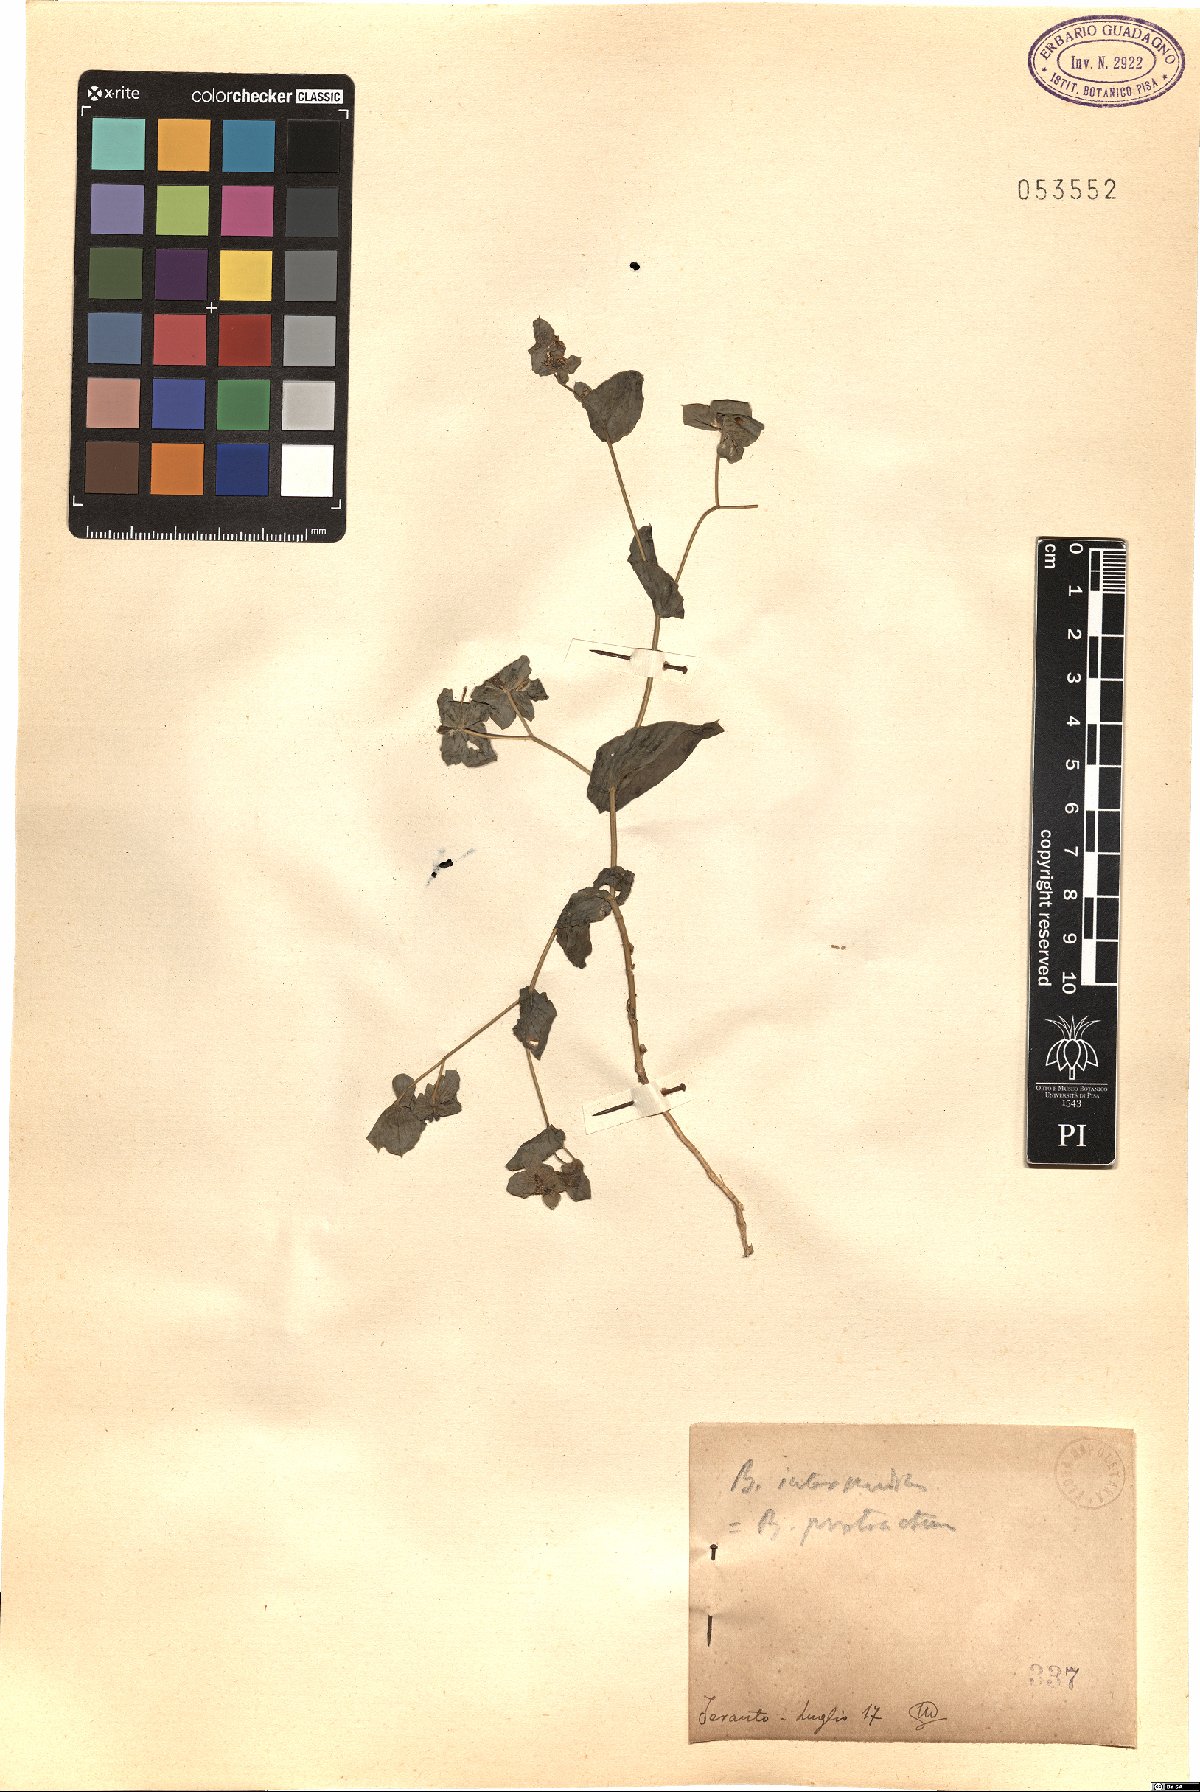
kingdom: Plantae
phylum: Tracheophyta
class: Magnoliopsida
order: Apiales
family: Apiaceae
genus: Bupleurum
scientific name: Bupleurum subovatum
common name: False thorow-wax
